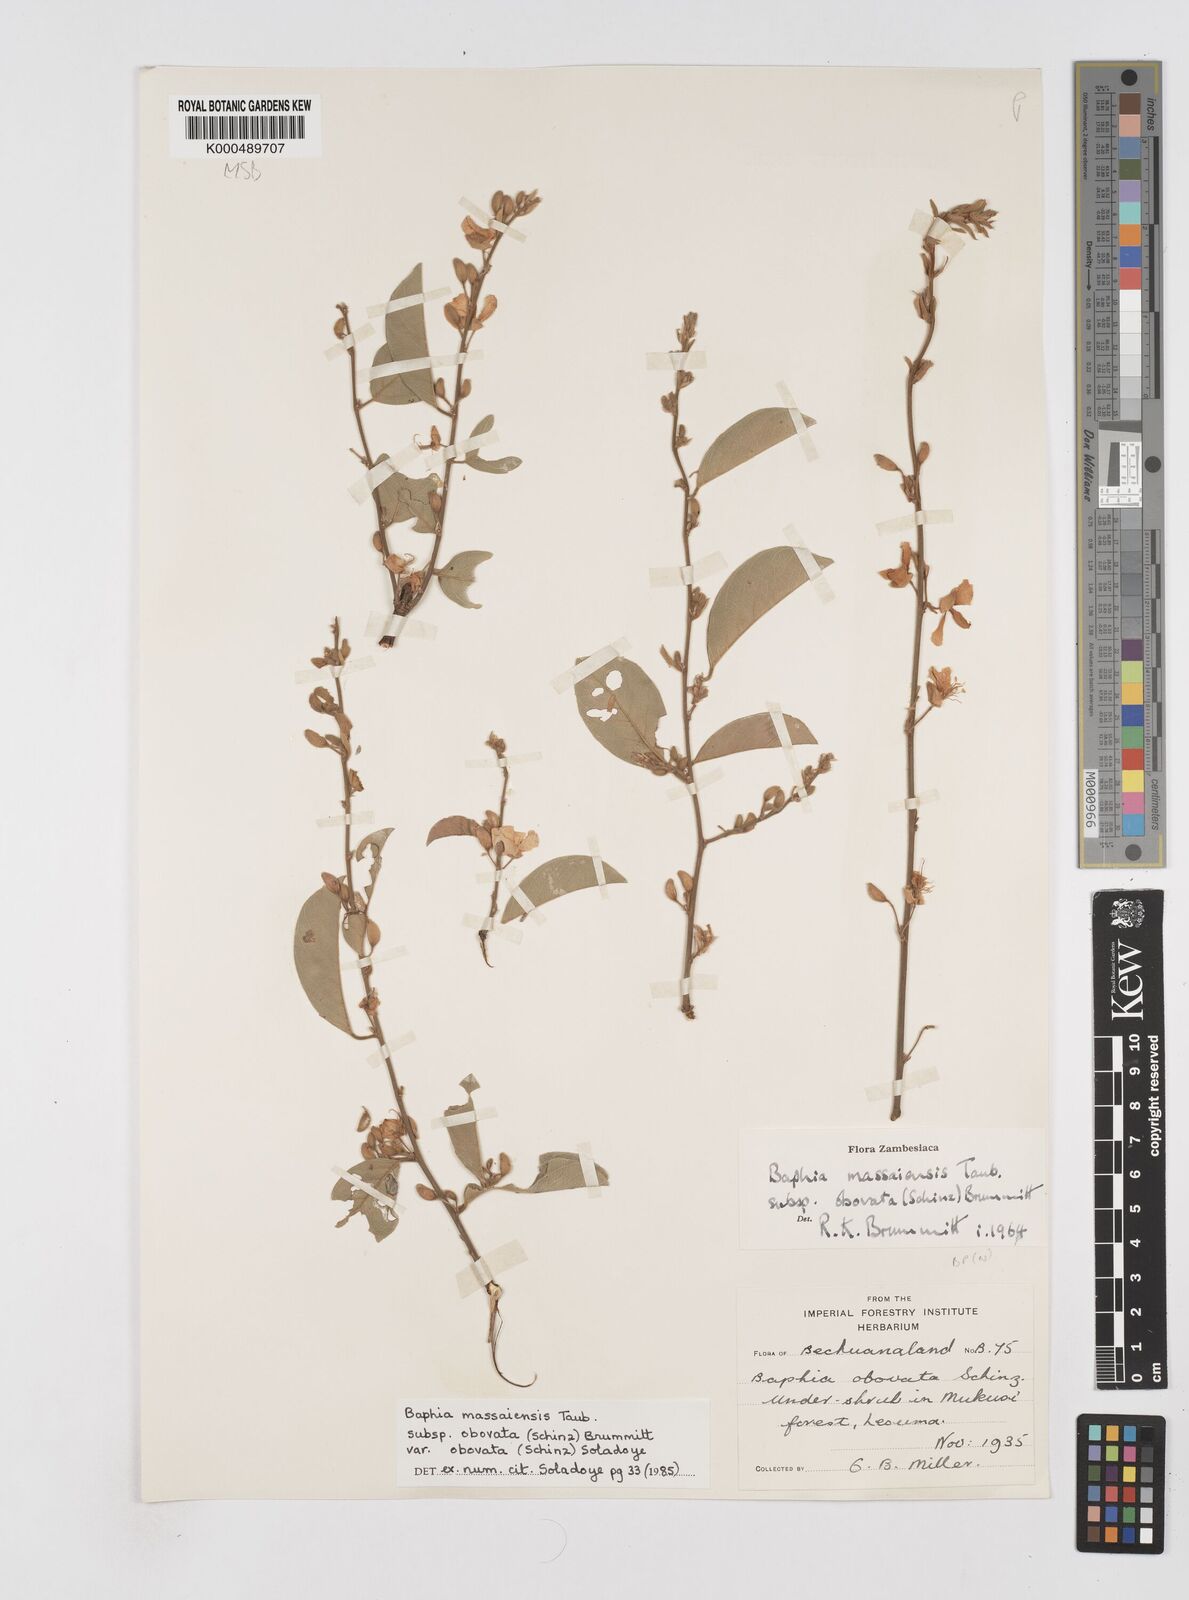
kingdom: Plantae
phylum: Tracheophyta
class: Magnoliopsida
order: Fabales
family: Fabaceae
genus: Baphia
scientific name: Baphia massaiensis
